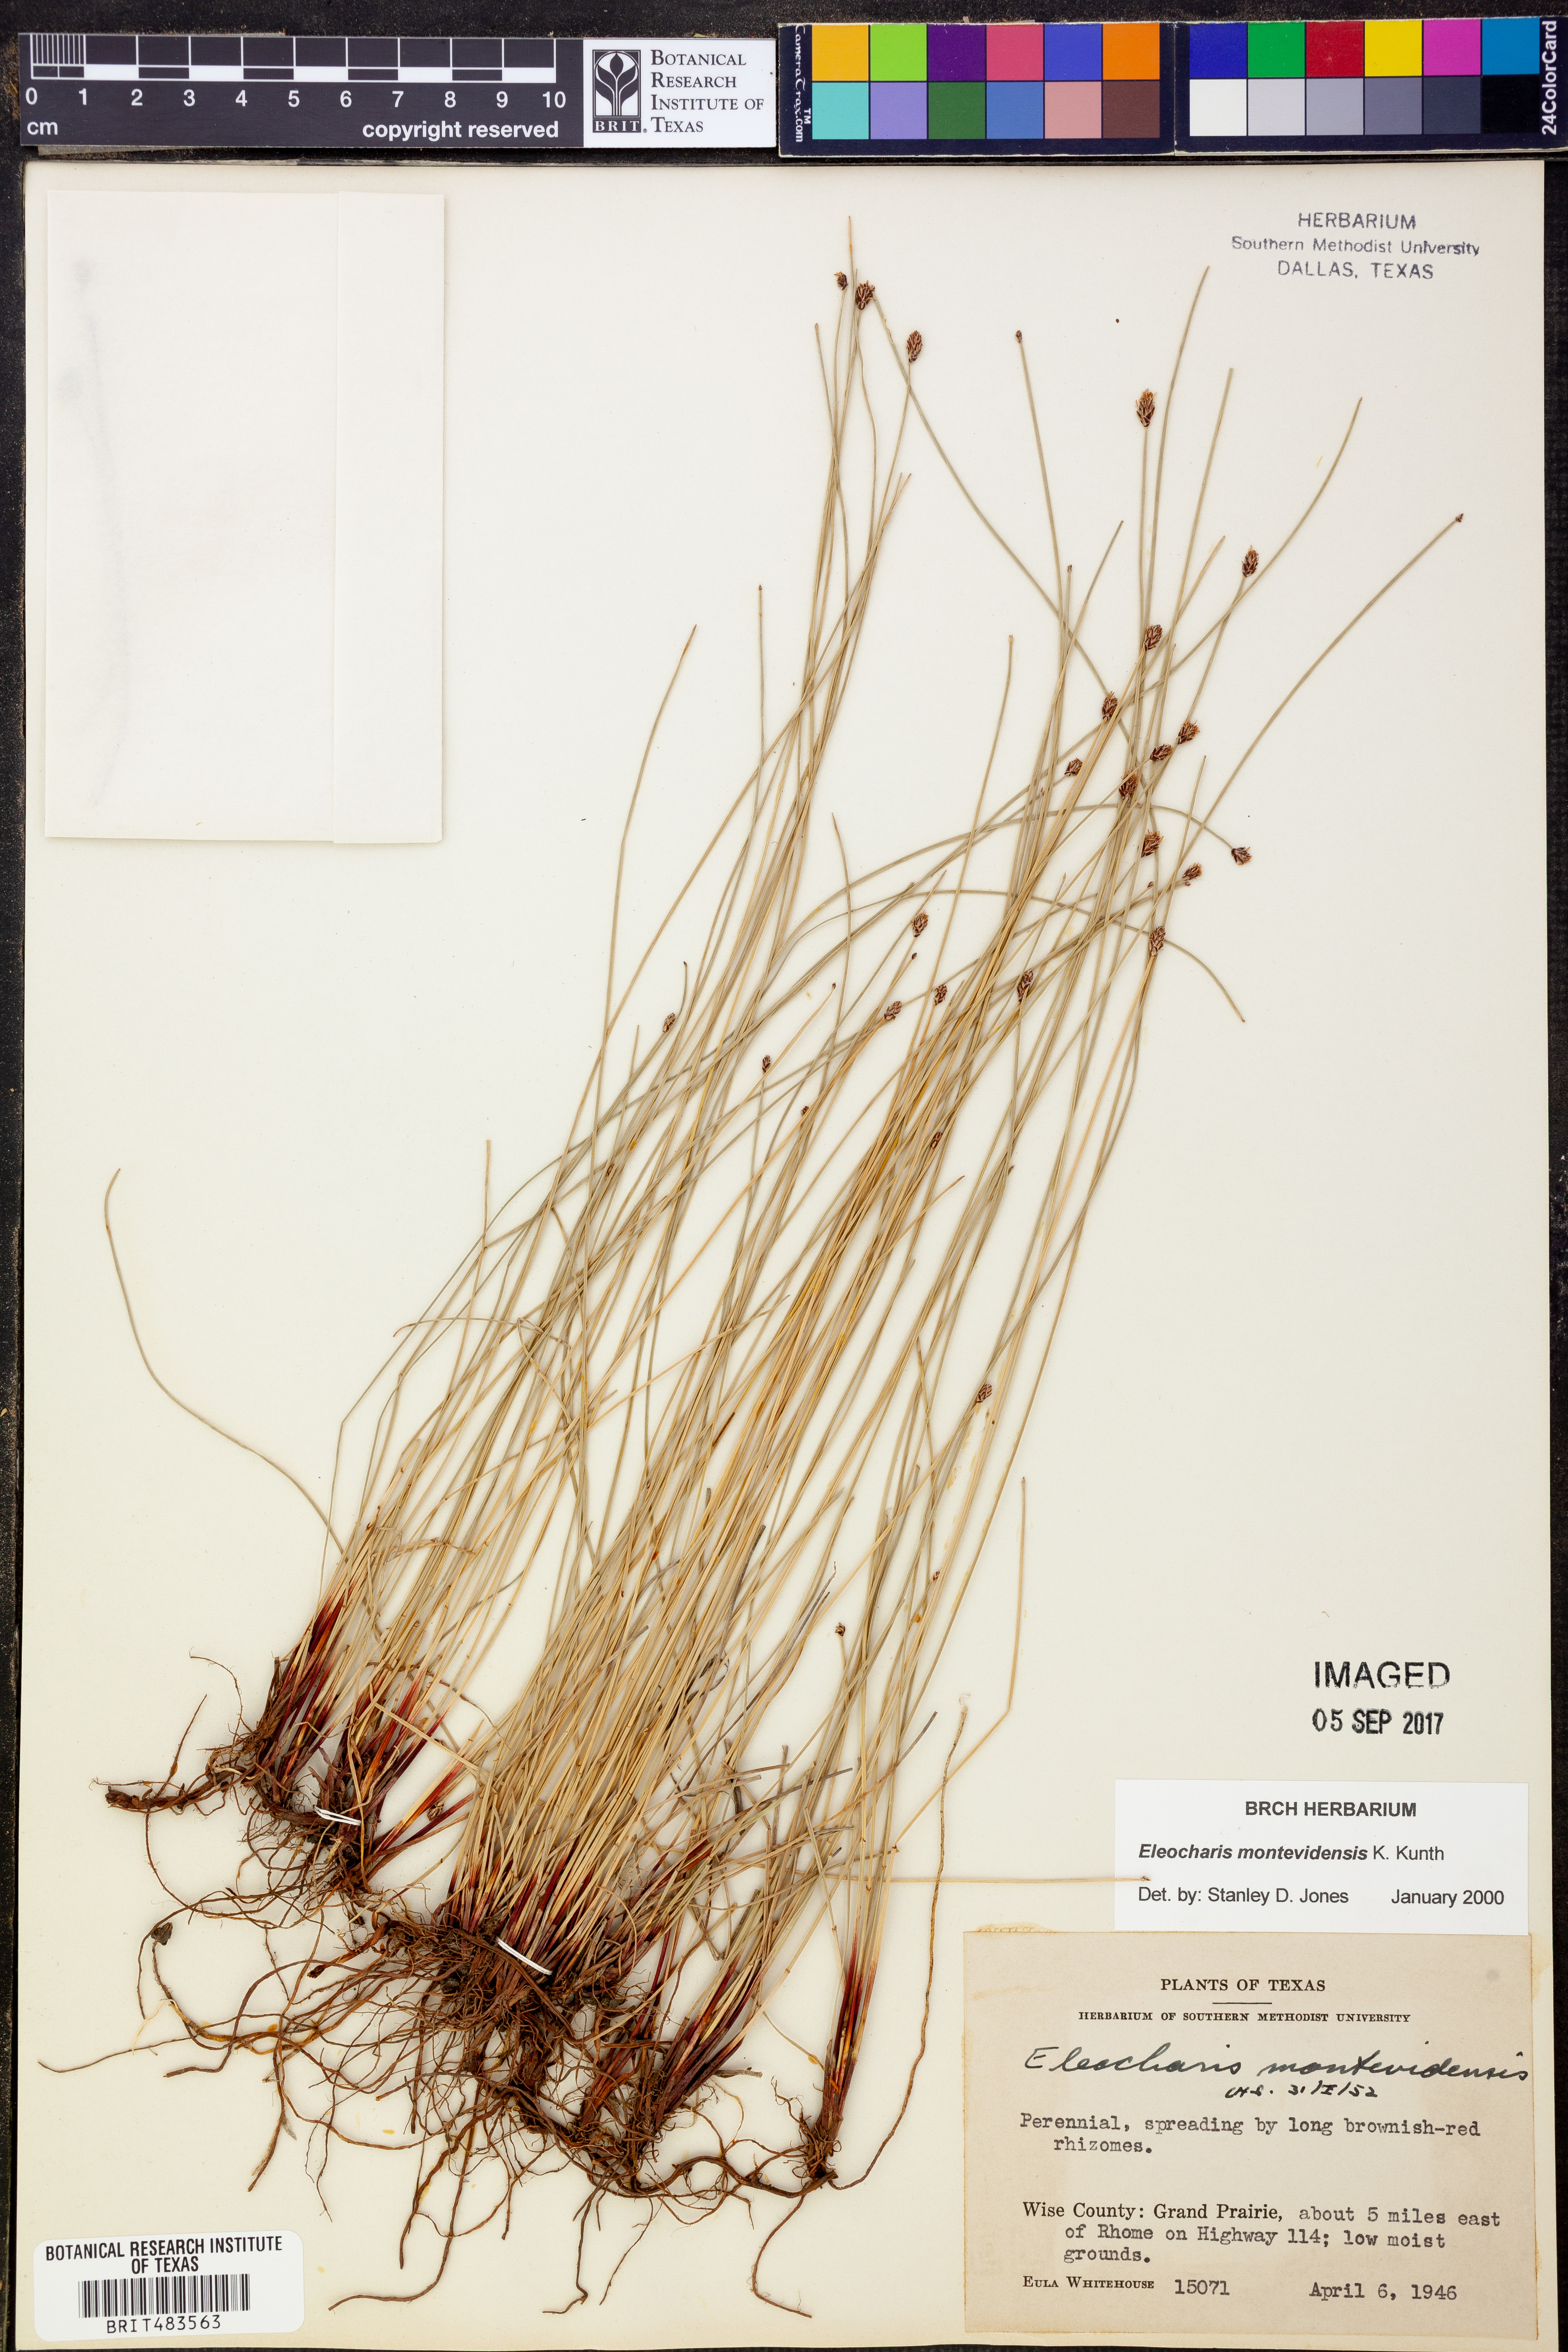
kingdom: Plantae
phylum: Tracheophyta
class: Liliopsida
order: Poales
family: Cyperaceae
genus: Eleocharis
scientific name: Eleocharis montevidensis
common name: Sand spike-rush
